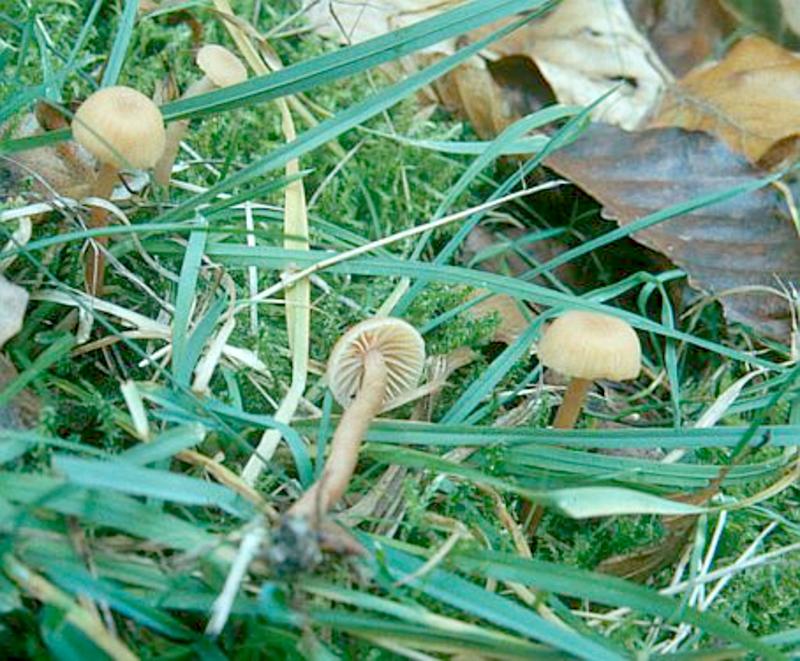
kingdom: Fungi
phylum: Basidiomycota
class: Agaricomycetes
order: Agaricales
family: Hydnangiaceae
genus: Laccaria
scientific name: Laccaria laccata
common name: Deceiver
